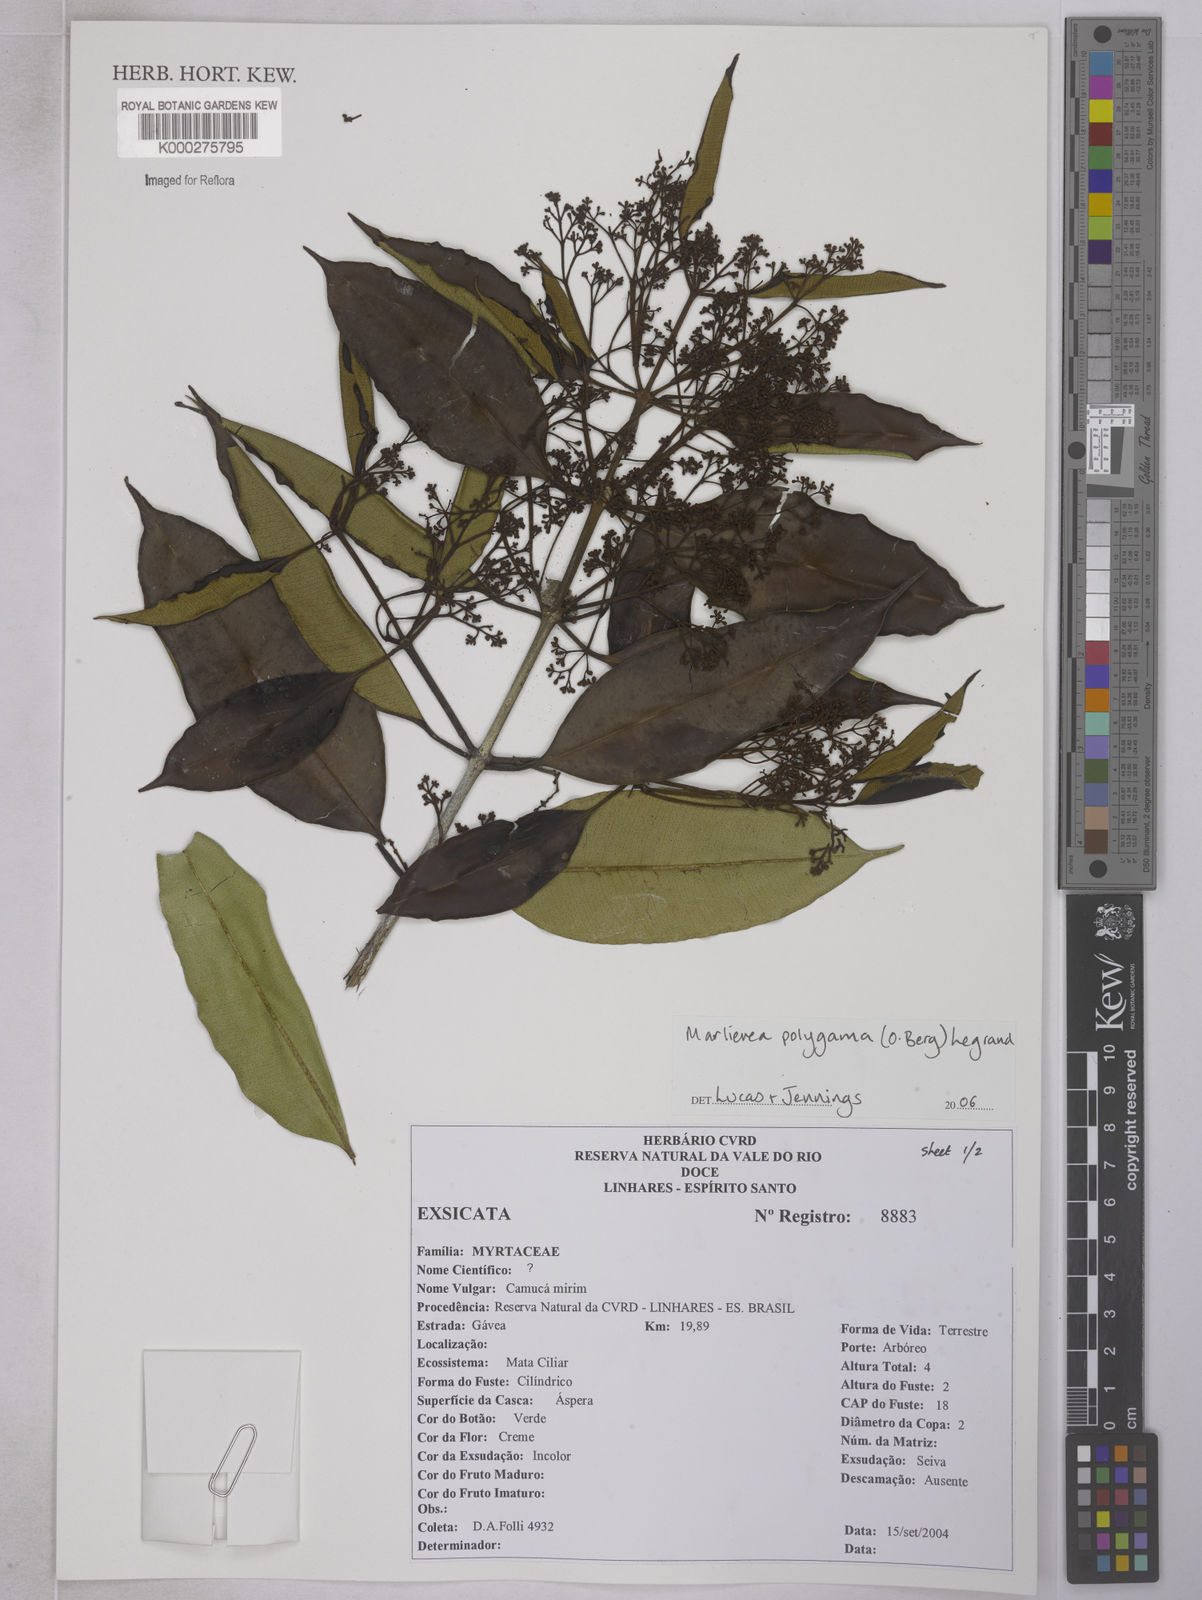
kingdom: Plantae
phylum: Tracheophyta
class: Magnoliopsida
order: Myrtales
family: Myrtaceae
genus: Marlierea
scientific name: Marlierea
